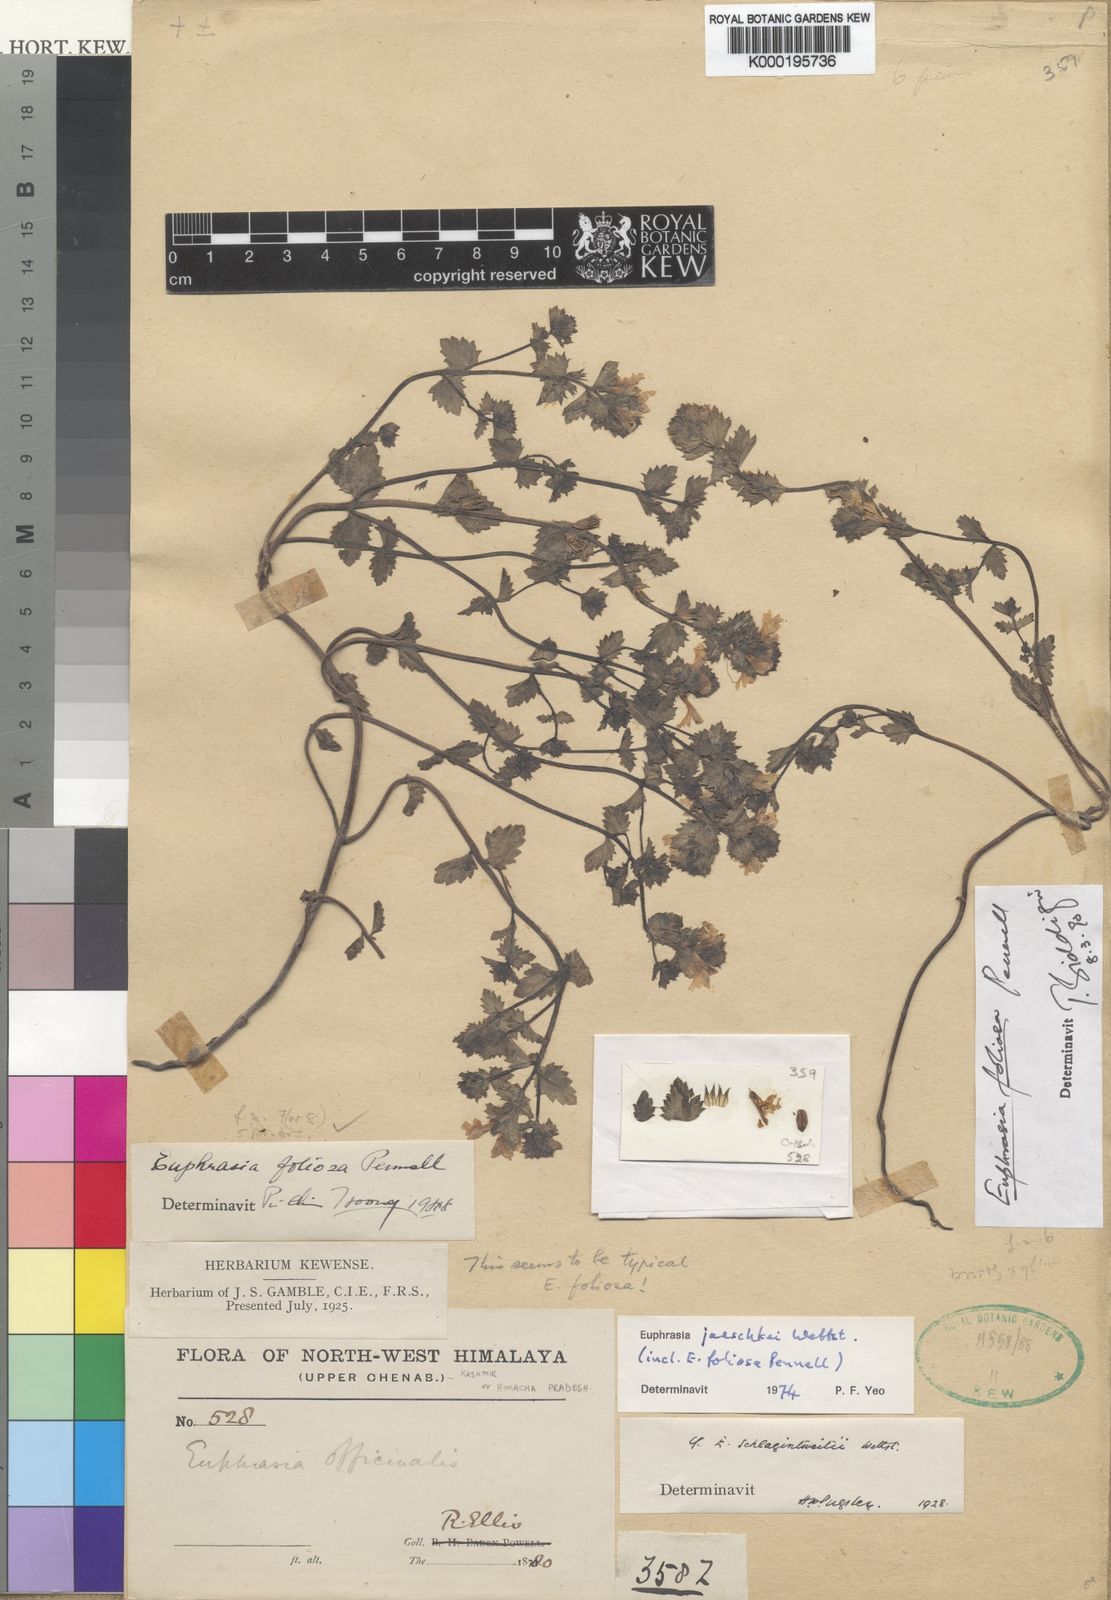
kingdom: Plantae
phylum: Tracheophyta
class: Magnoliopsida
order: Lamiales
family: Orobanchaceae
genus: Euphrasia
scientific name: Euphrasia foliosa
